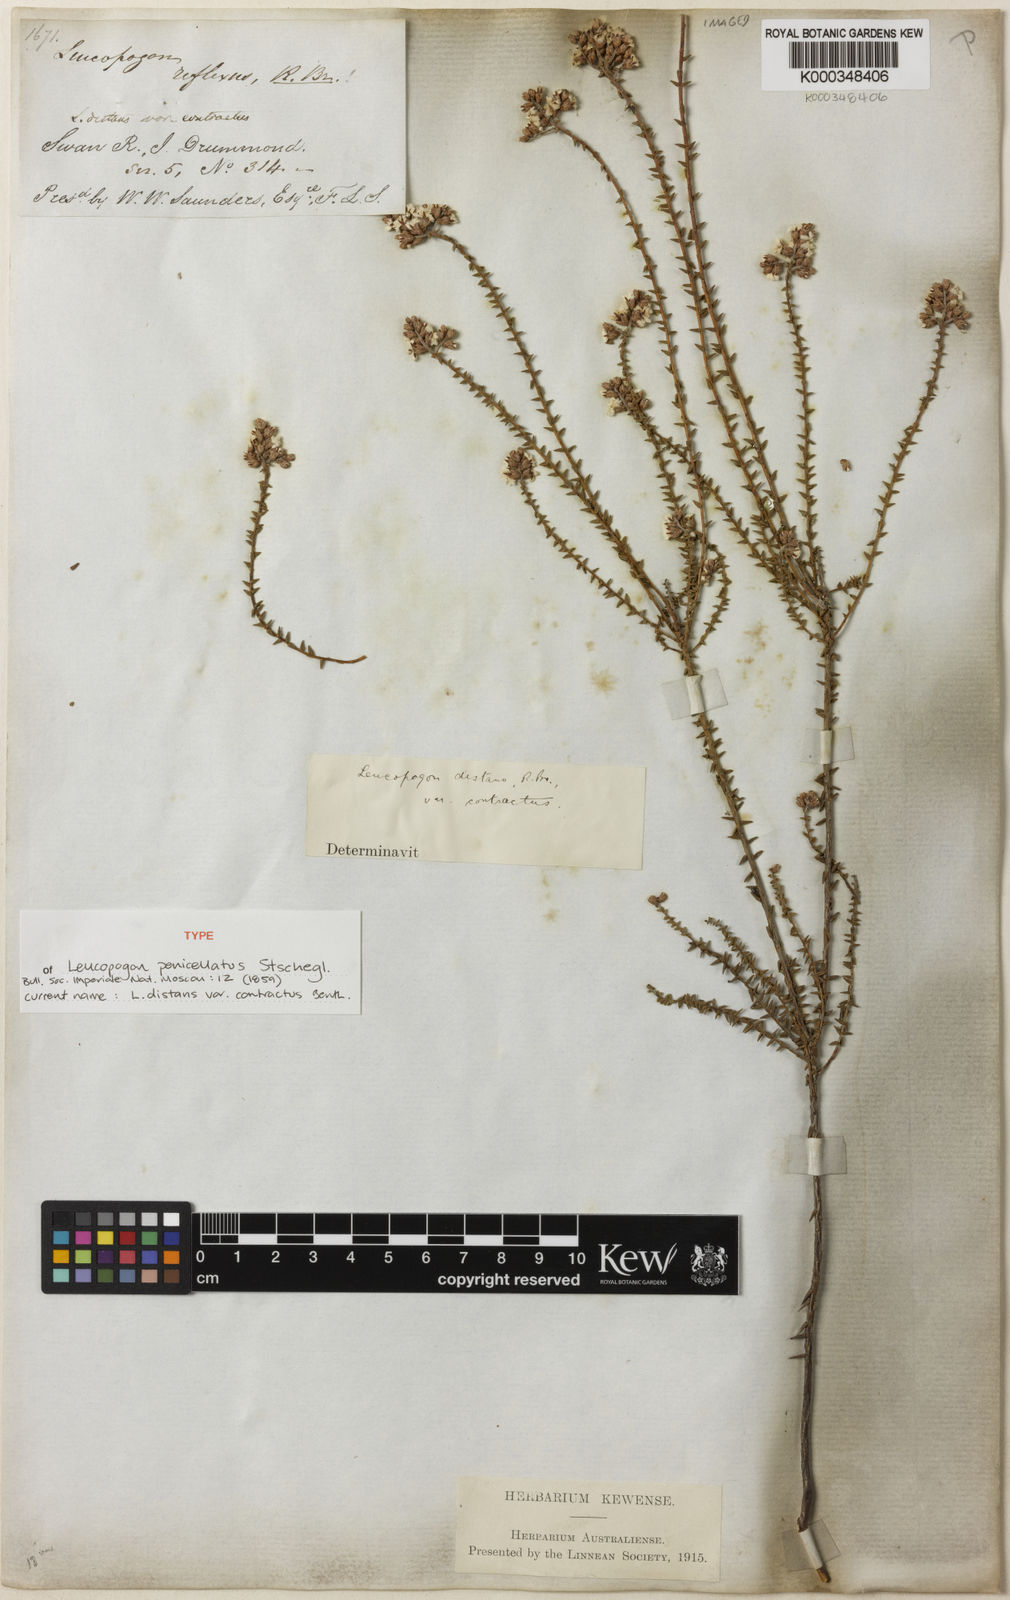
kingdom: Plantae
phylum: Tracheophyta
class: Magnoliopsida
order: Ericales
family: Ericaceae
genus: Leucopogon
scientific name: Leucopogon penicillatus
